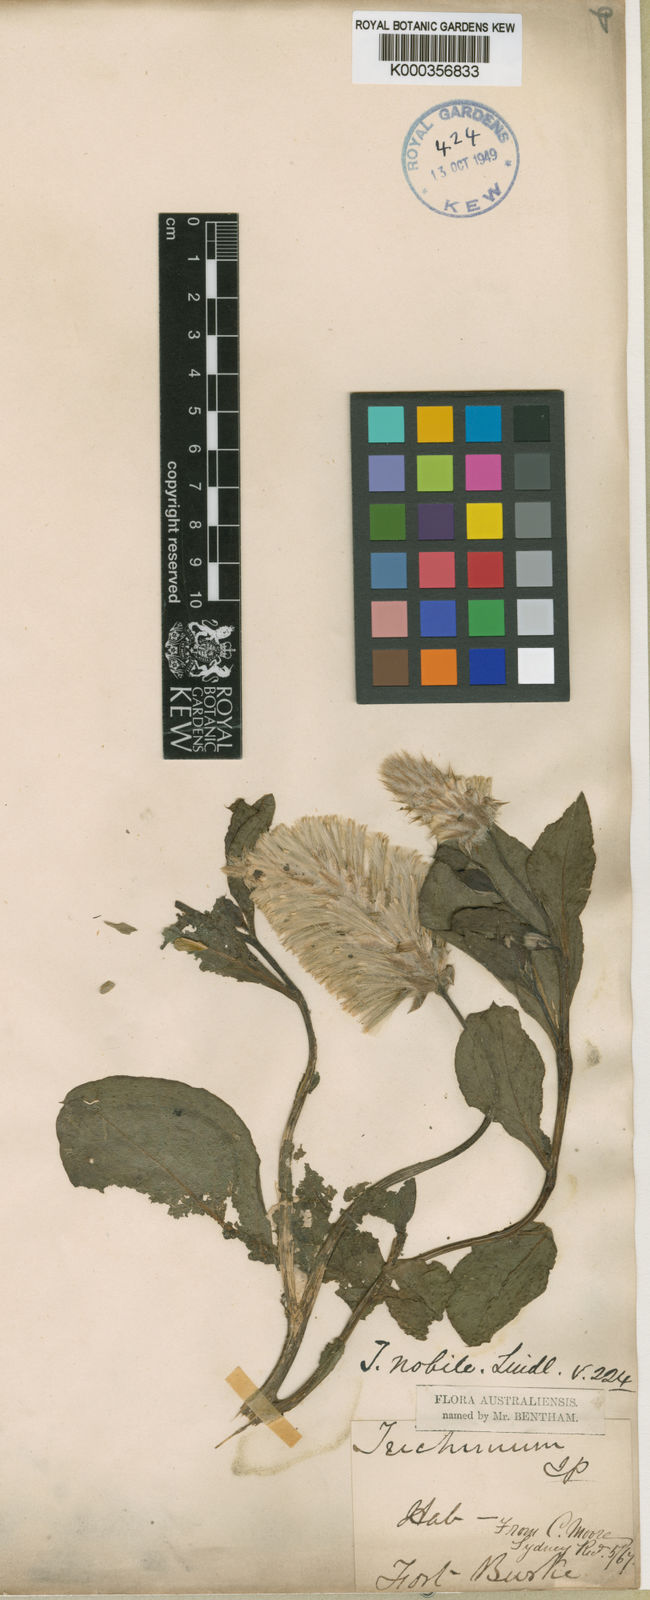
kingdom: Plantae
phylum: Tracheophyta
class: Magnoliopsida
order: Caryophyllales
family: Amaranthaceae
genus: Ptilotus
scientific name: Ptilotus nobilis
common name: Regal-foxtail
